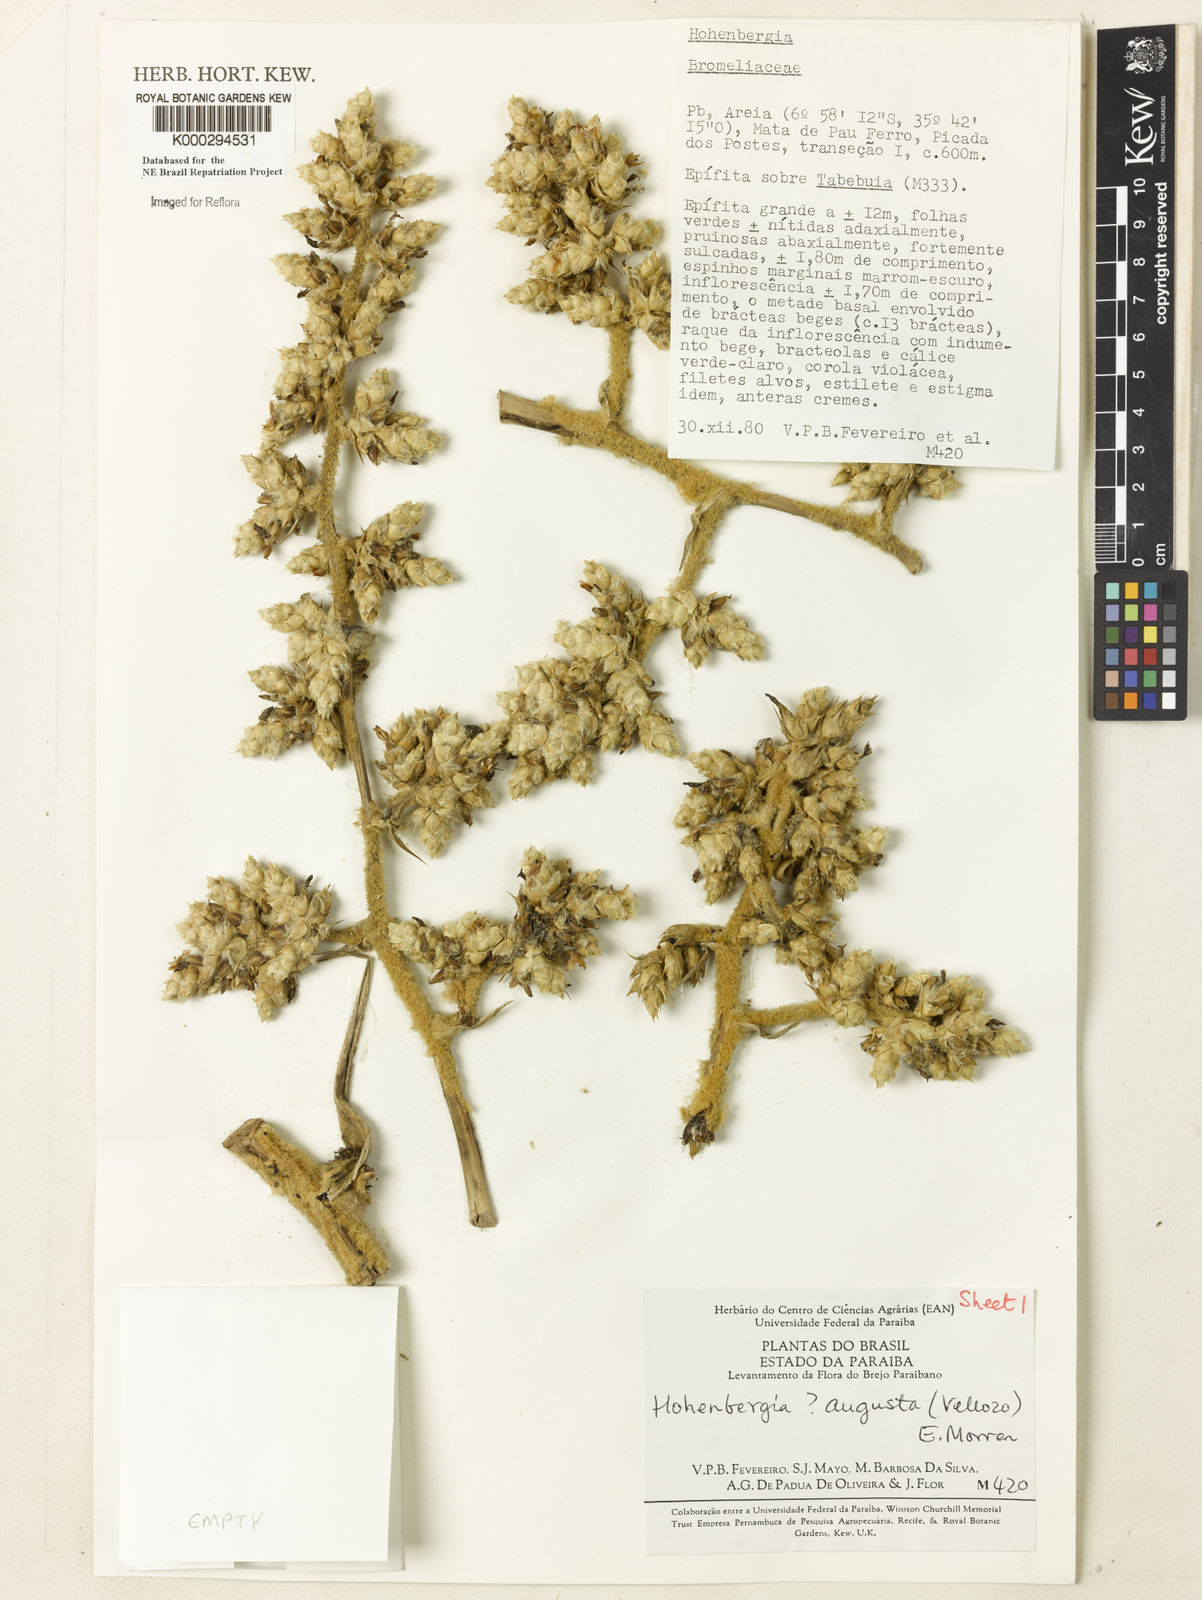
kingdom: Plantae
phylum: Tracheophyta
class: Liliopsida
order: Poales
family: Bromeliaceae
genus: Hohenbergia
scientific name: Hohenbergia augusta
